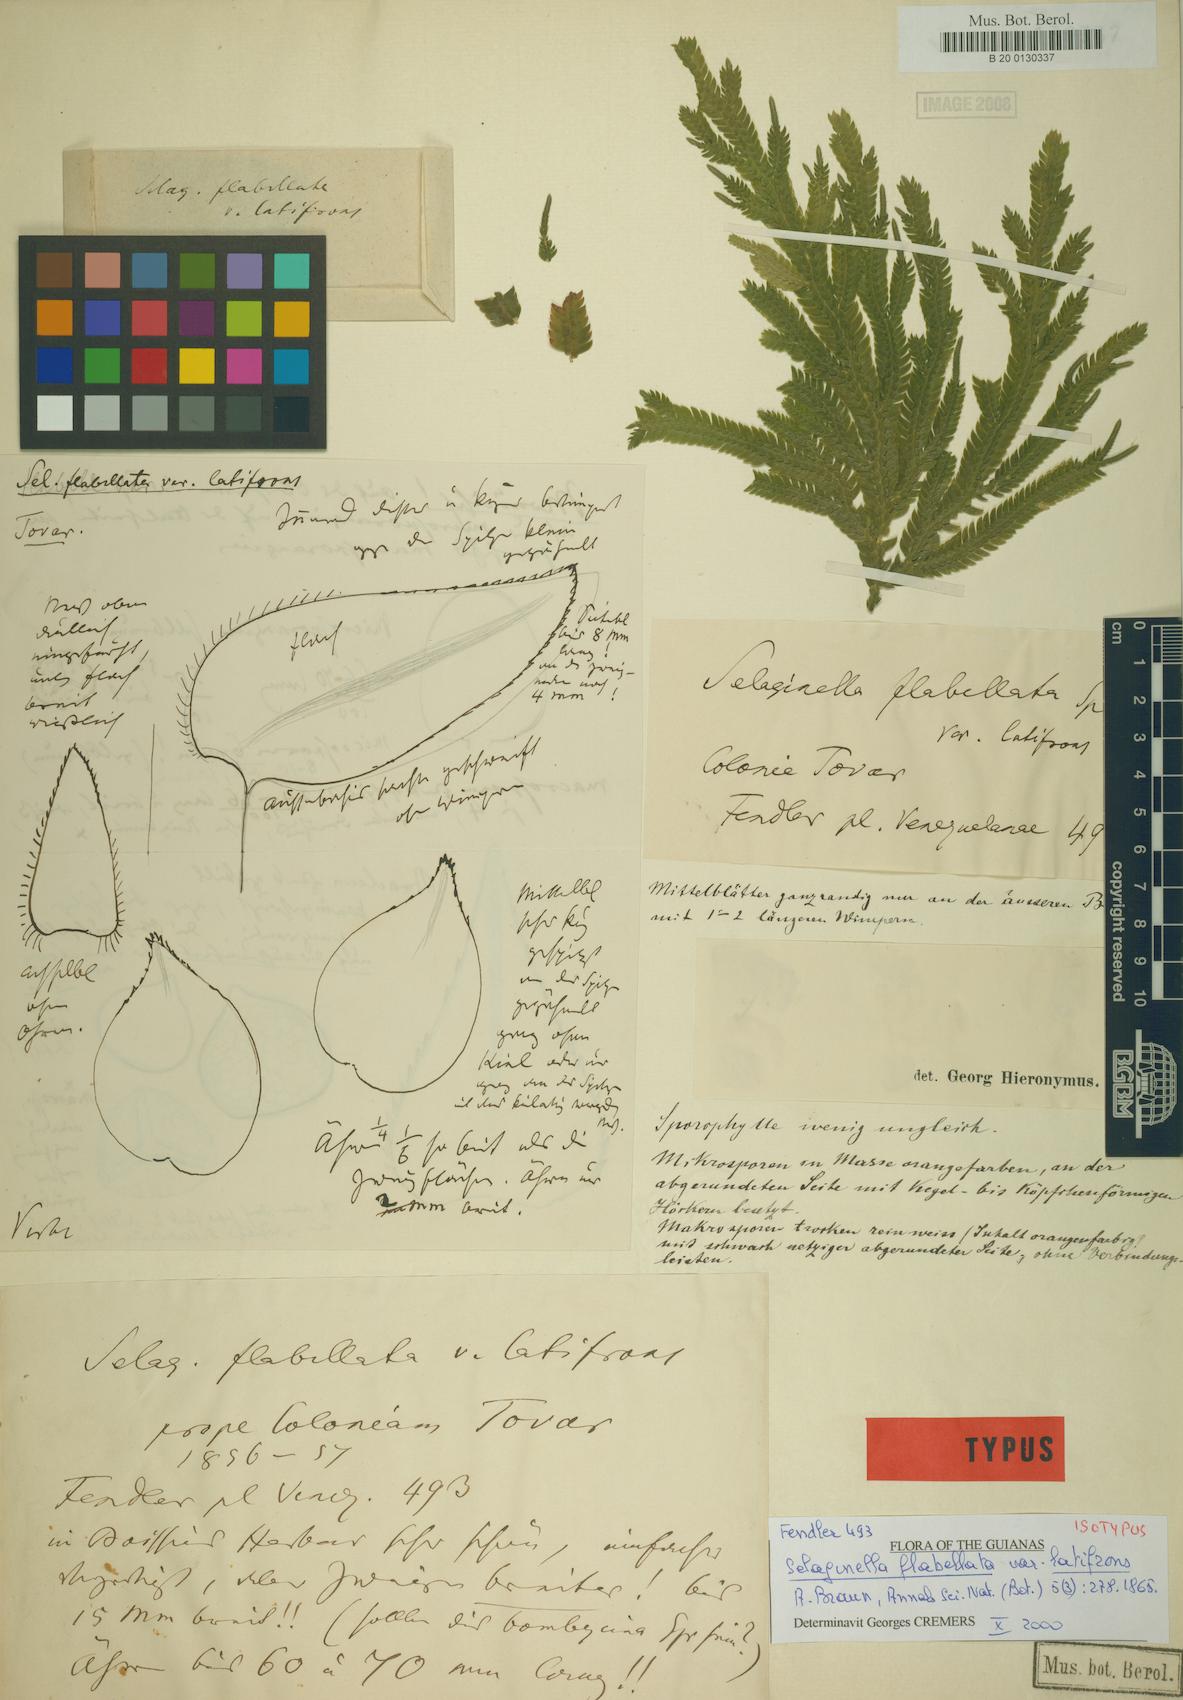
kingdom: Plantae
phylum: Tracheophyta
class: Lycopodiopsida
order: Selaginellales
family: Selaginellaceae
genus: Selaginella
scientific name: Selaginella flabellata
